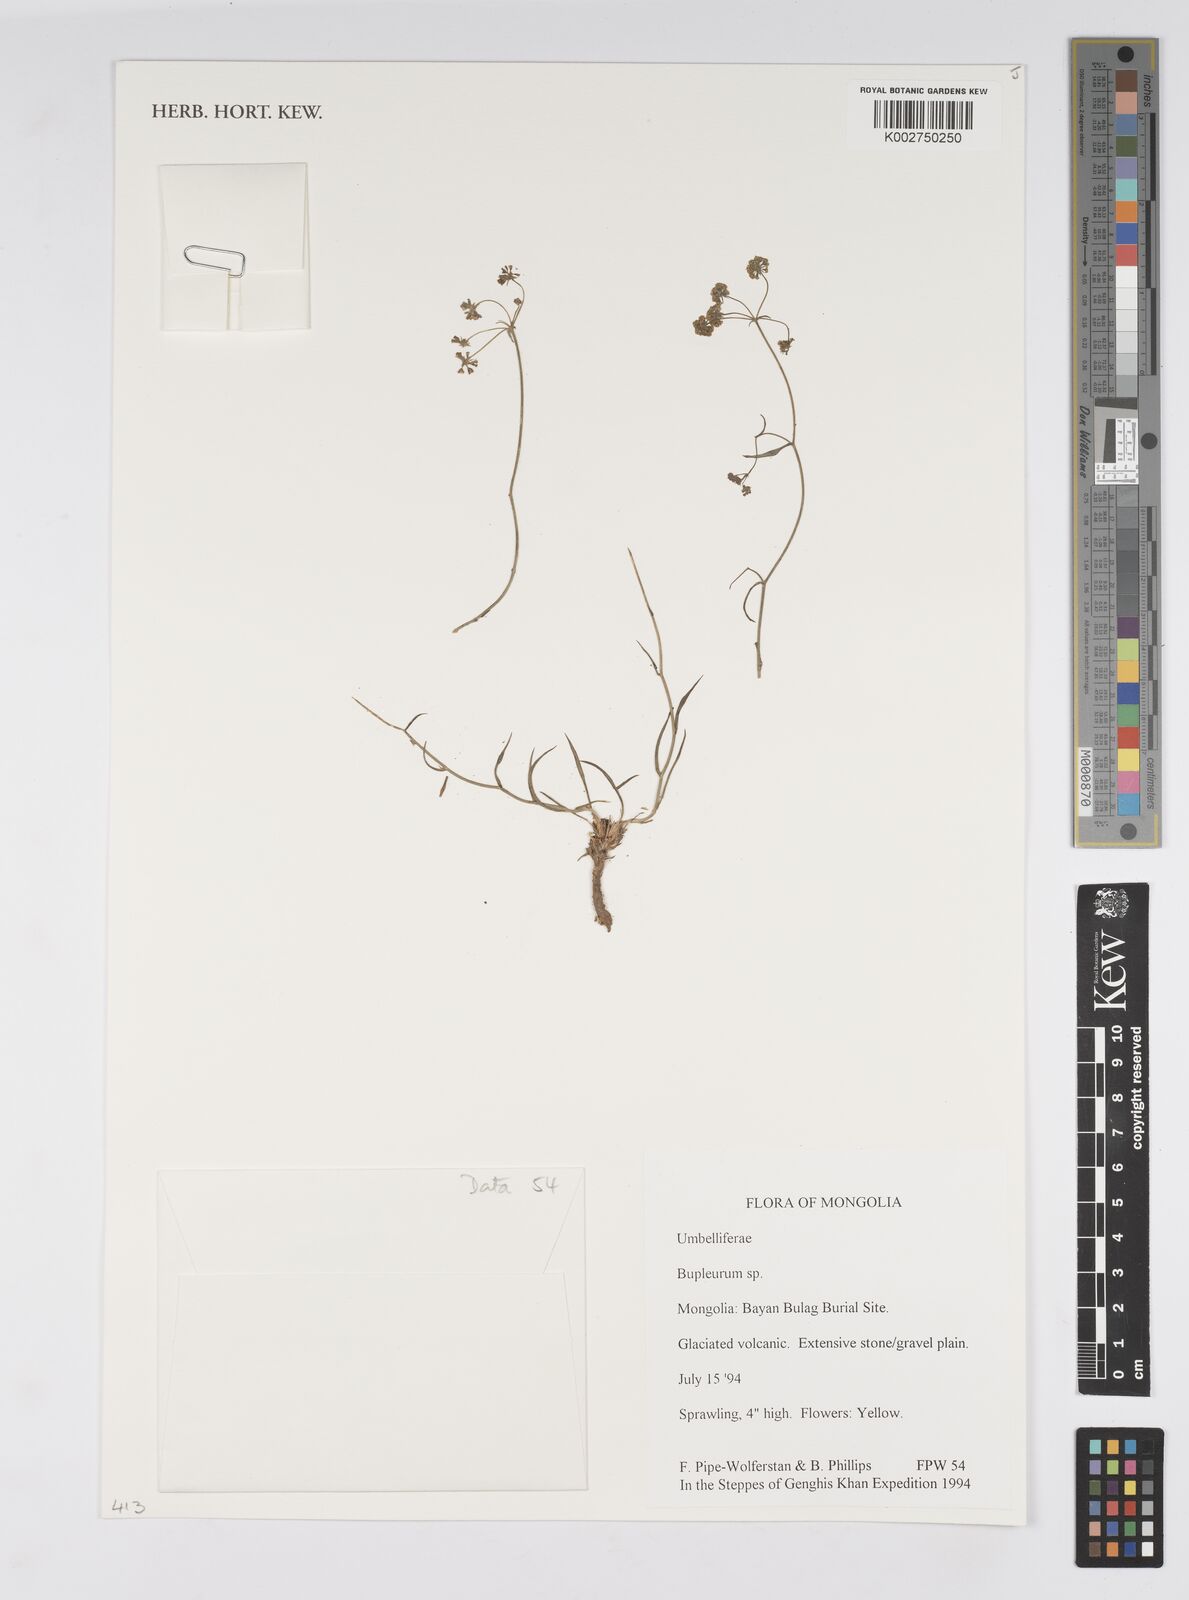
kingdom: Plantae
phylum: Tracheophyta
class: Magnoliopsida
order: Apiales
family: Apiaceae
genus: Bupleurum
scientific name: Bupleurum
